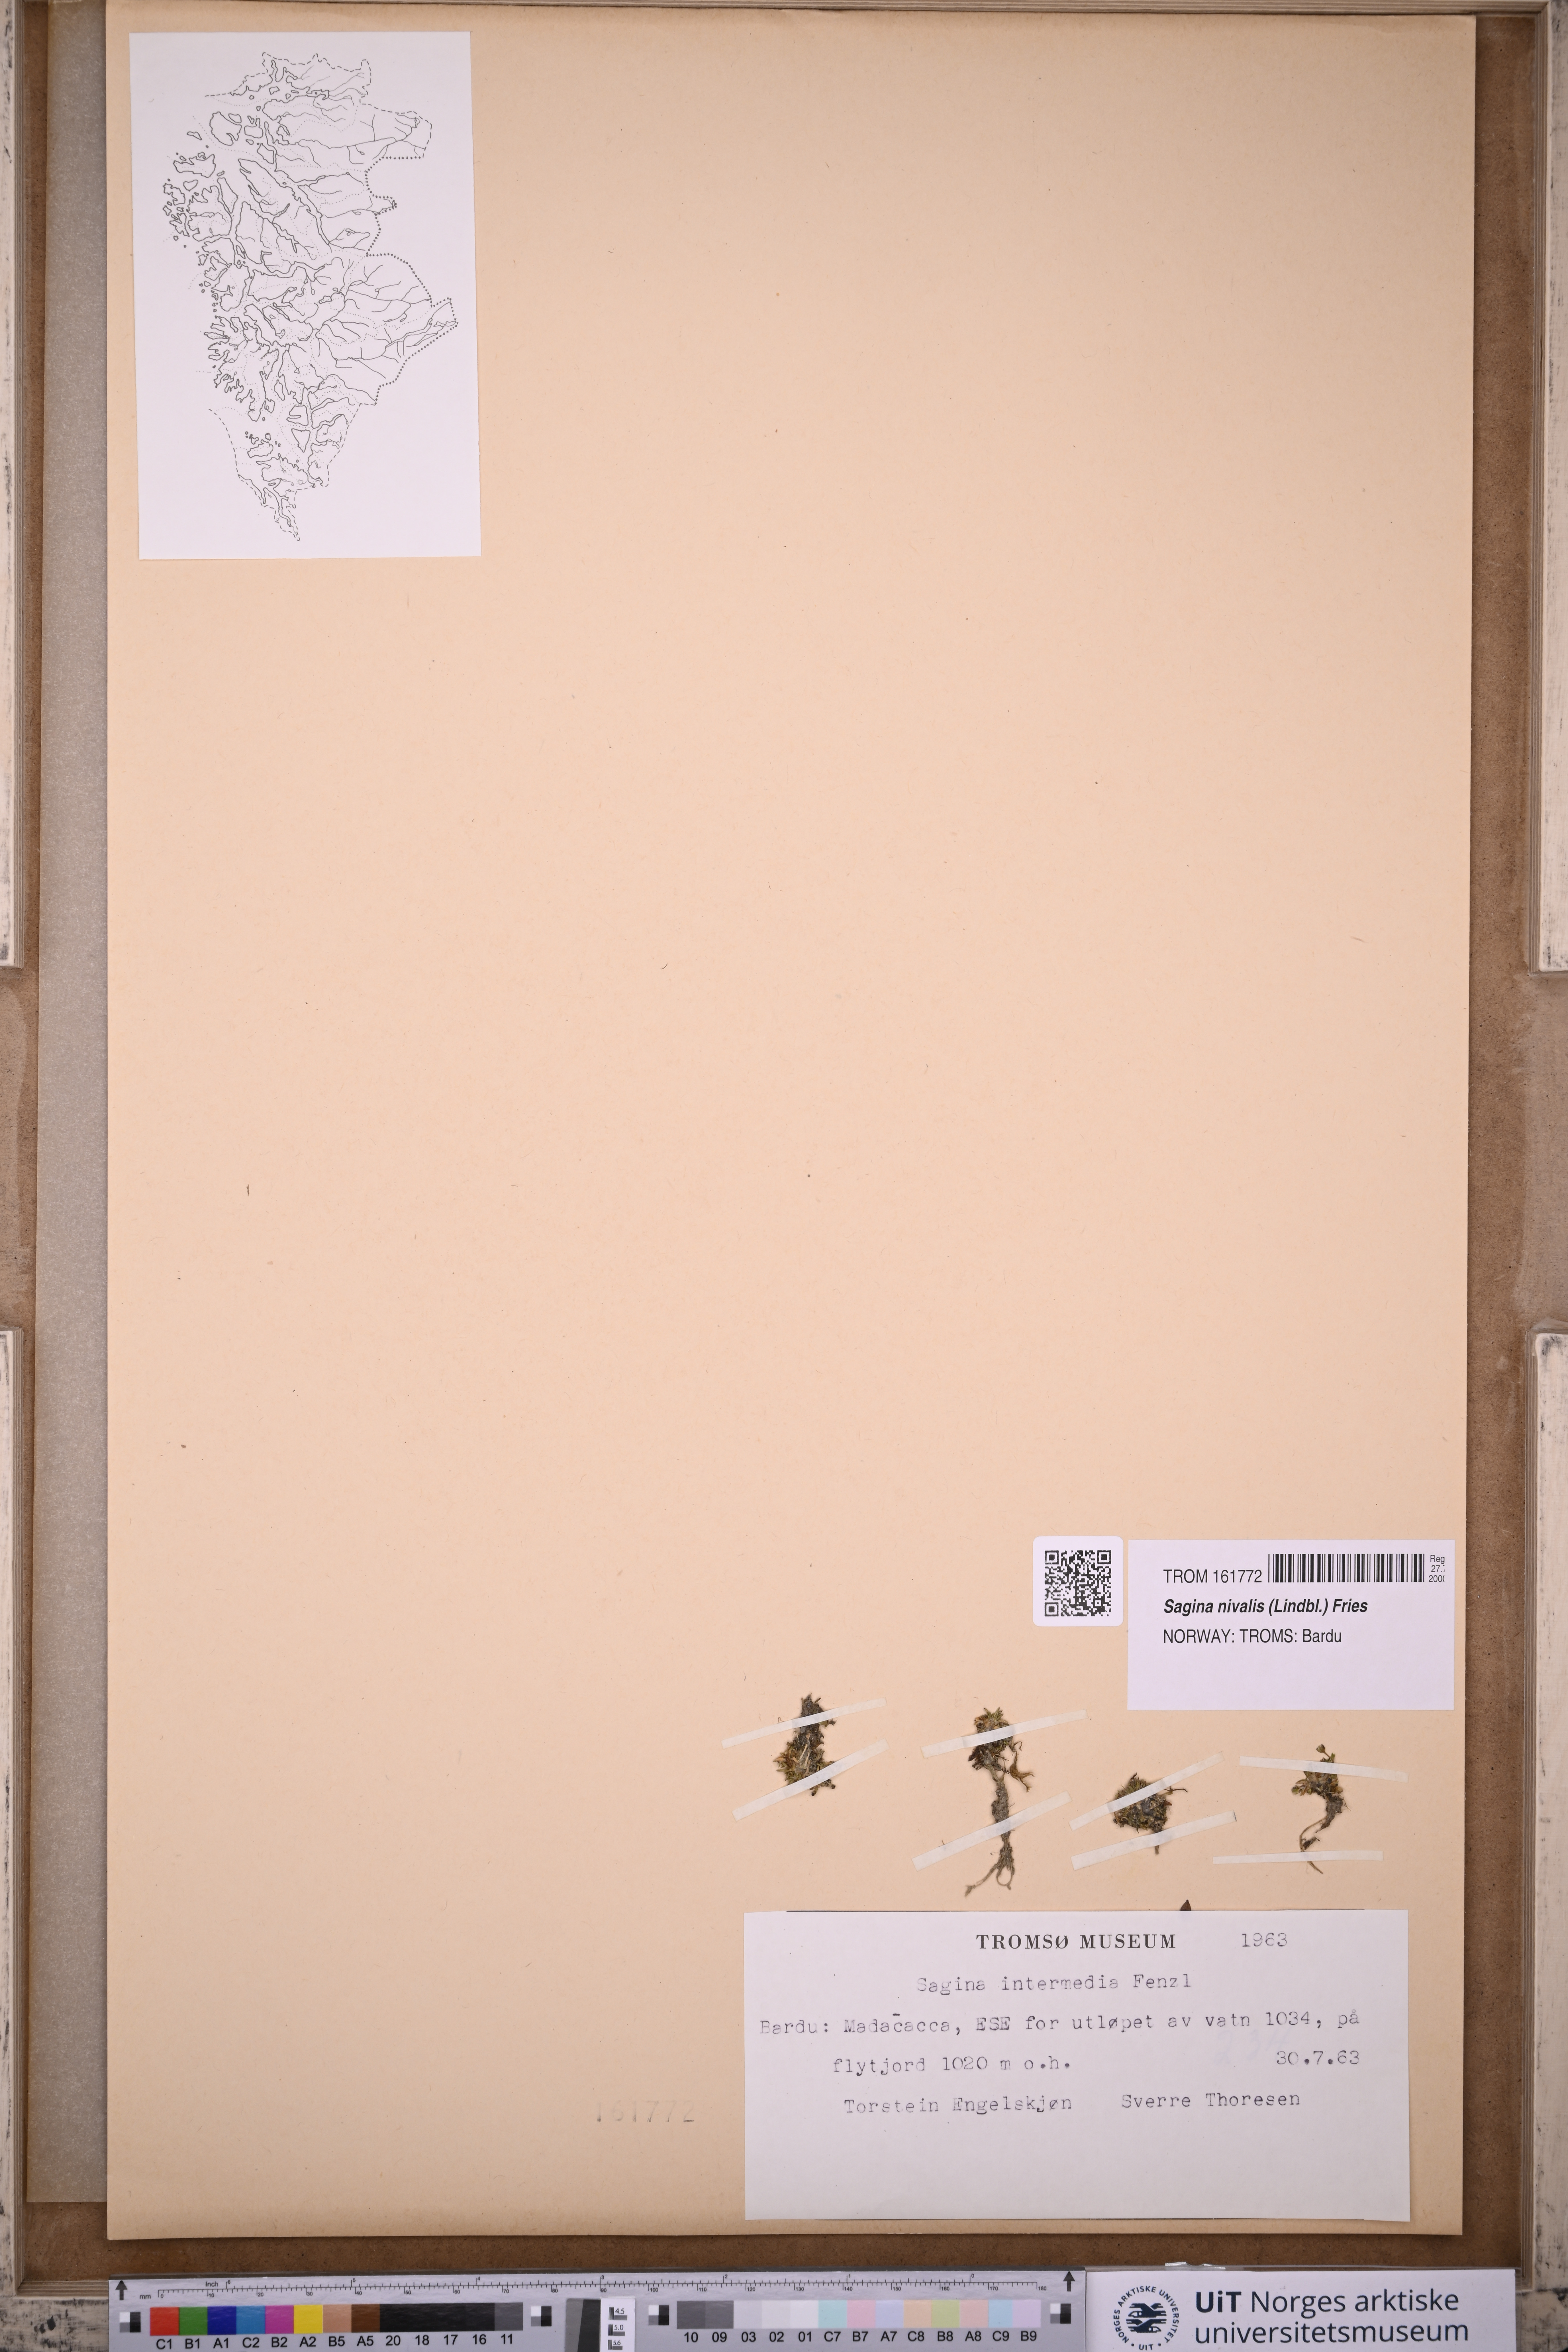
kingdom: Plantae
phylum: Tracheophyta
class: Magnoliopsida
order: Caryophyllales
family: Caryophyllaceae
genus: Sagina
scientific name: Sagina nivalis
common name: Snow pearlwort
